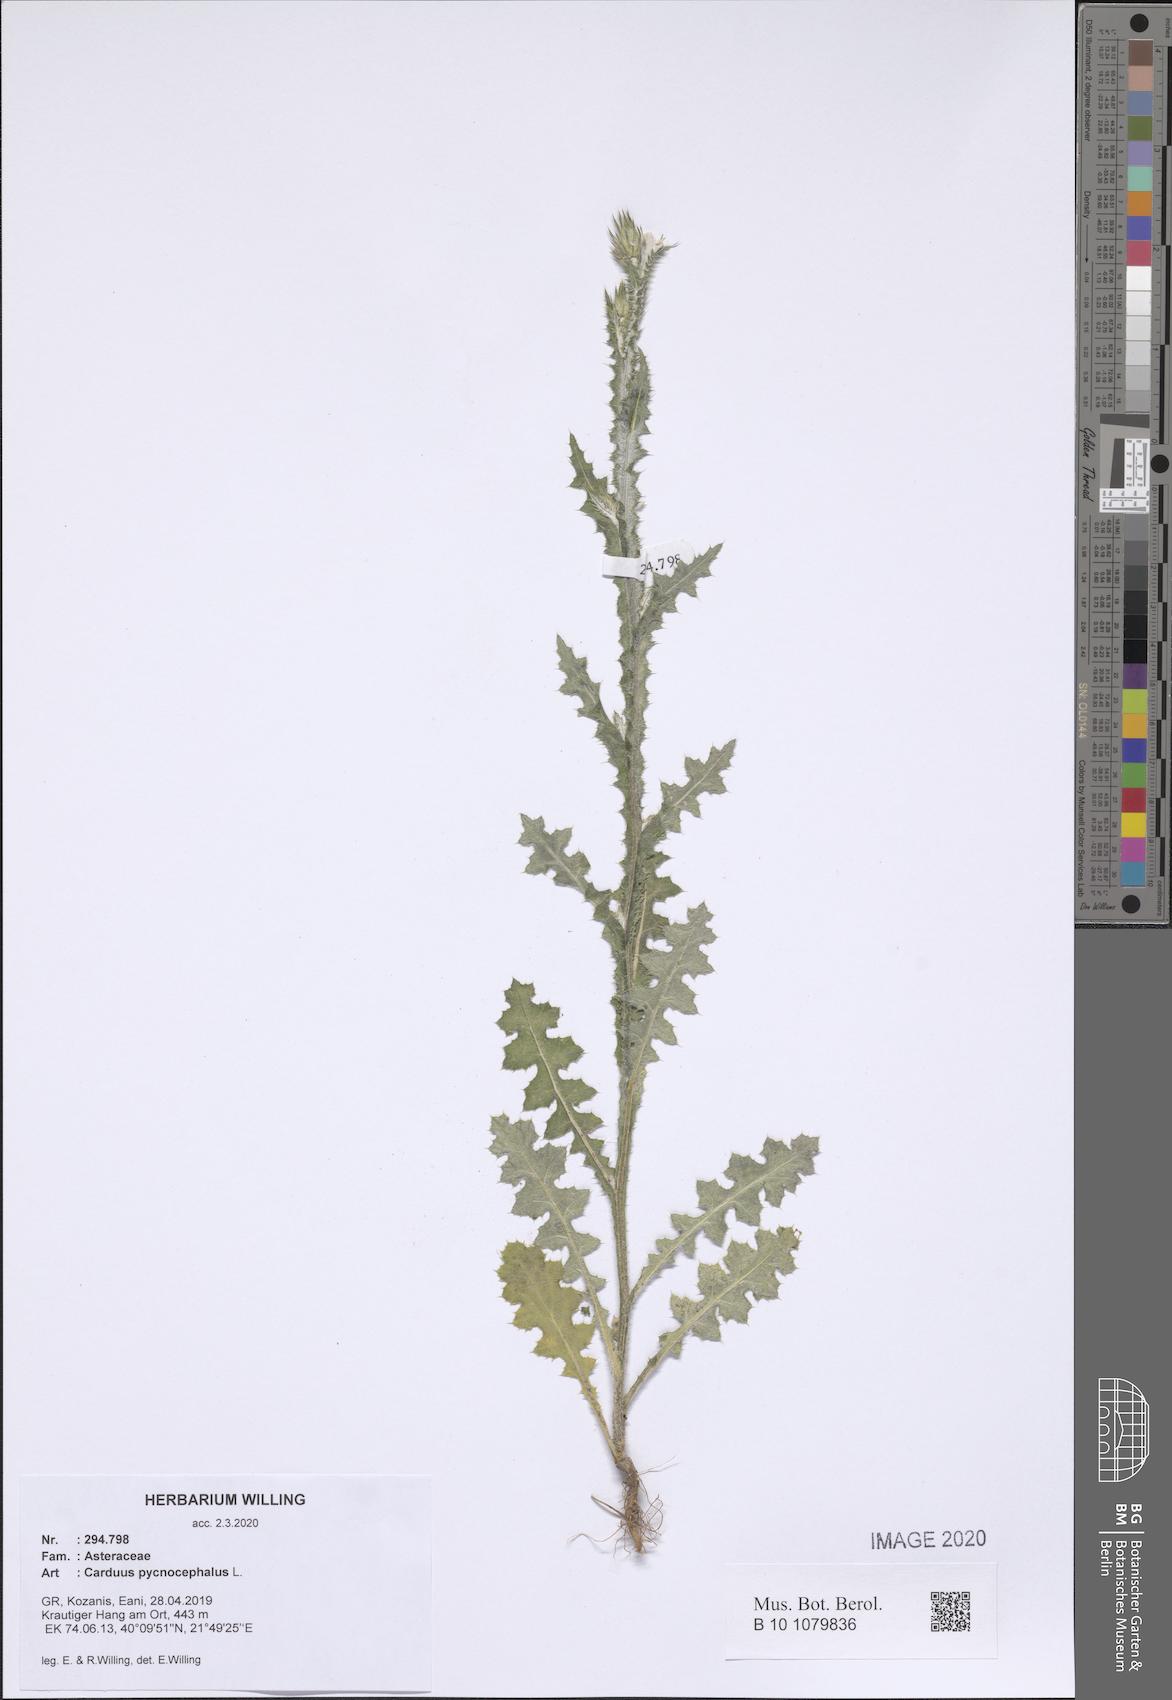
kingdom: Plantae
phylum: Tracheophyta
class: Magnoliopsida
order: Asterales
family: Asteraceae
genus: Carduus
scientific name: Carduus pycnocephalus
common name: Plymouth thistle
